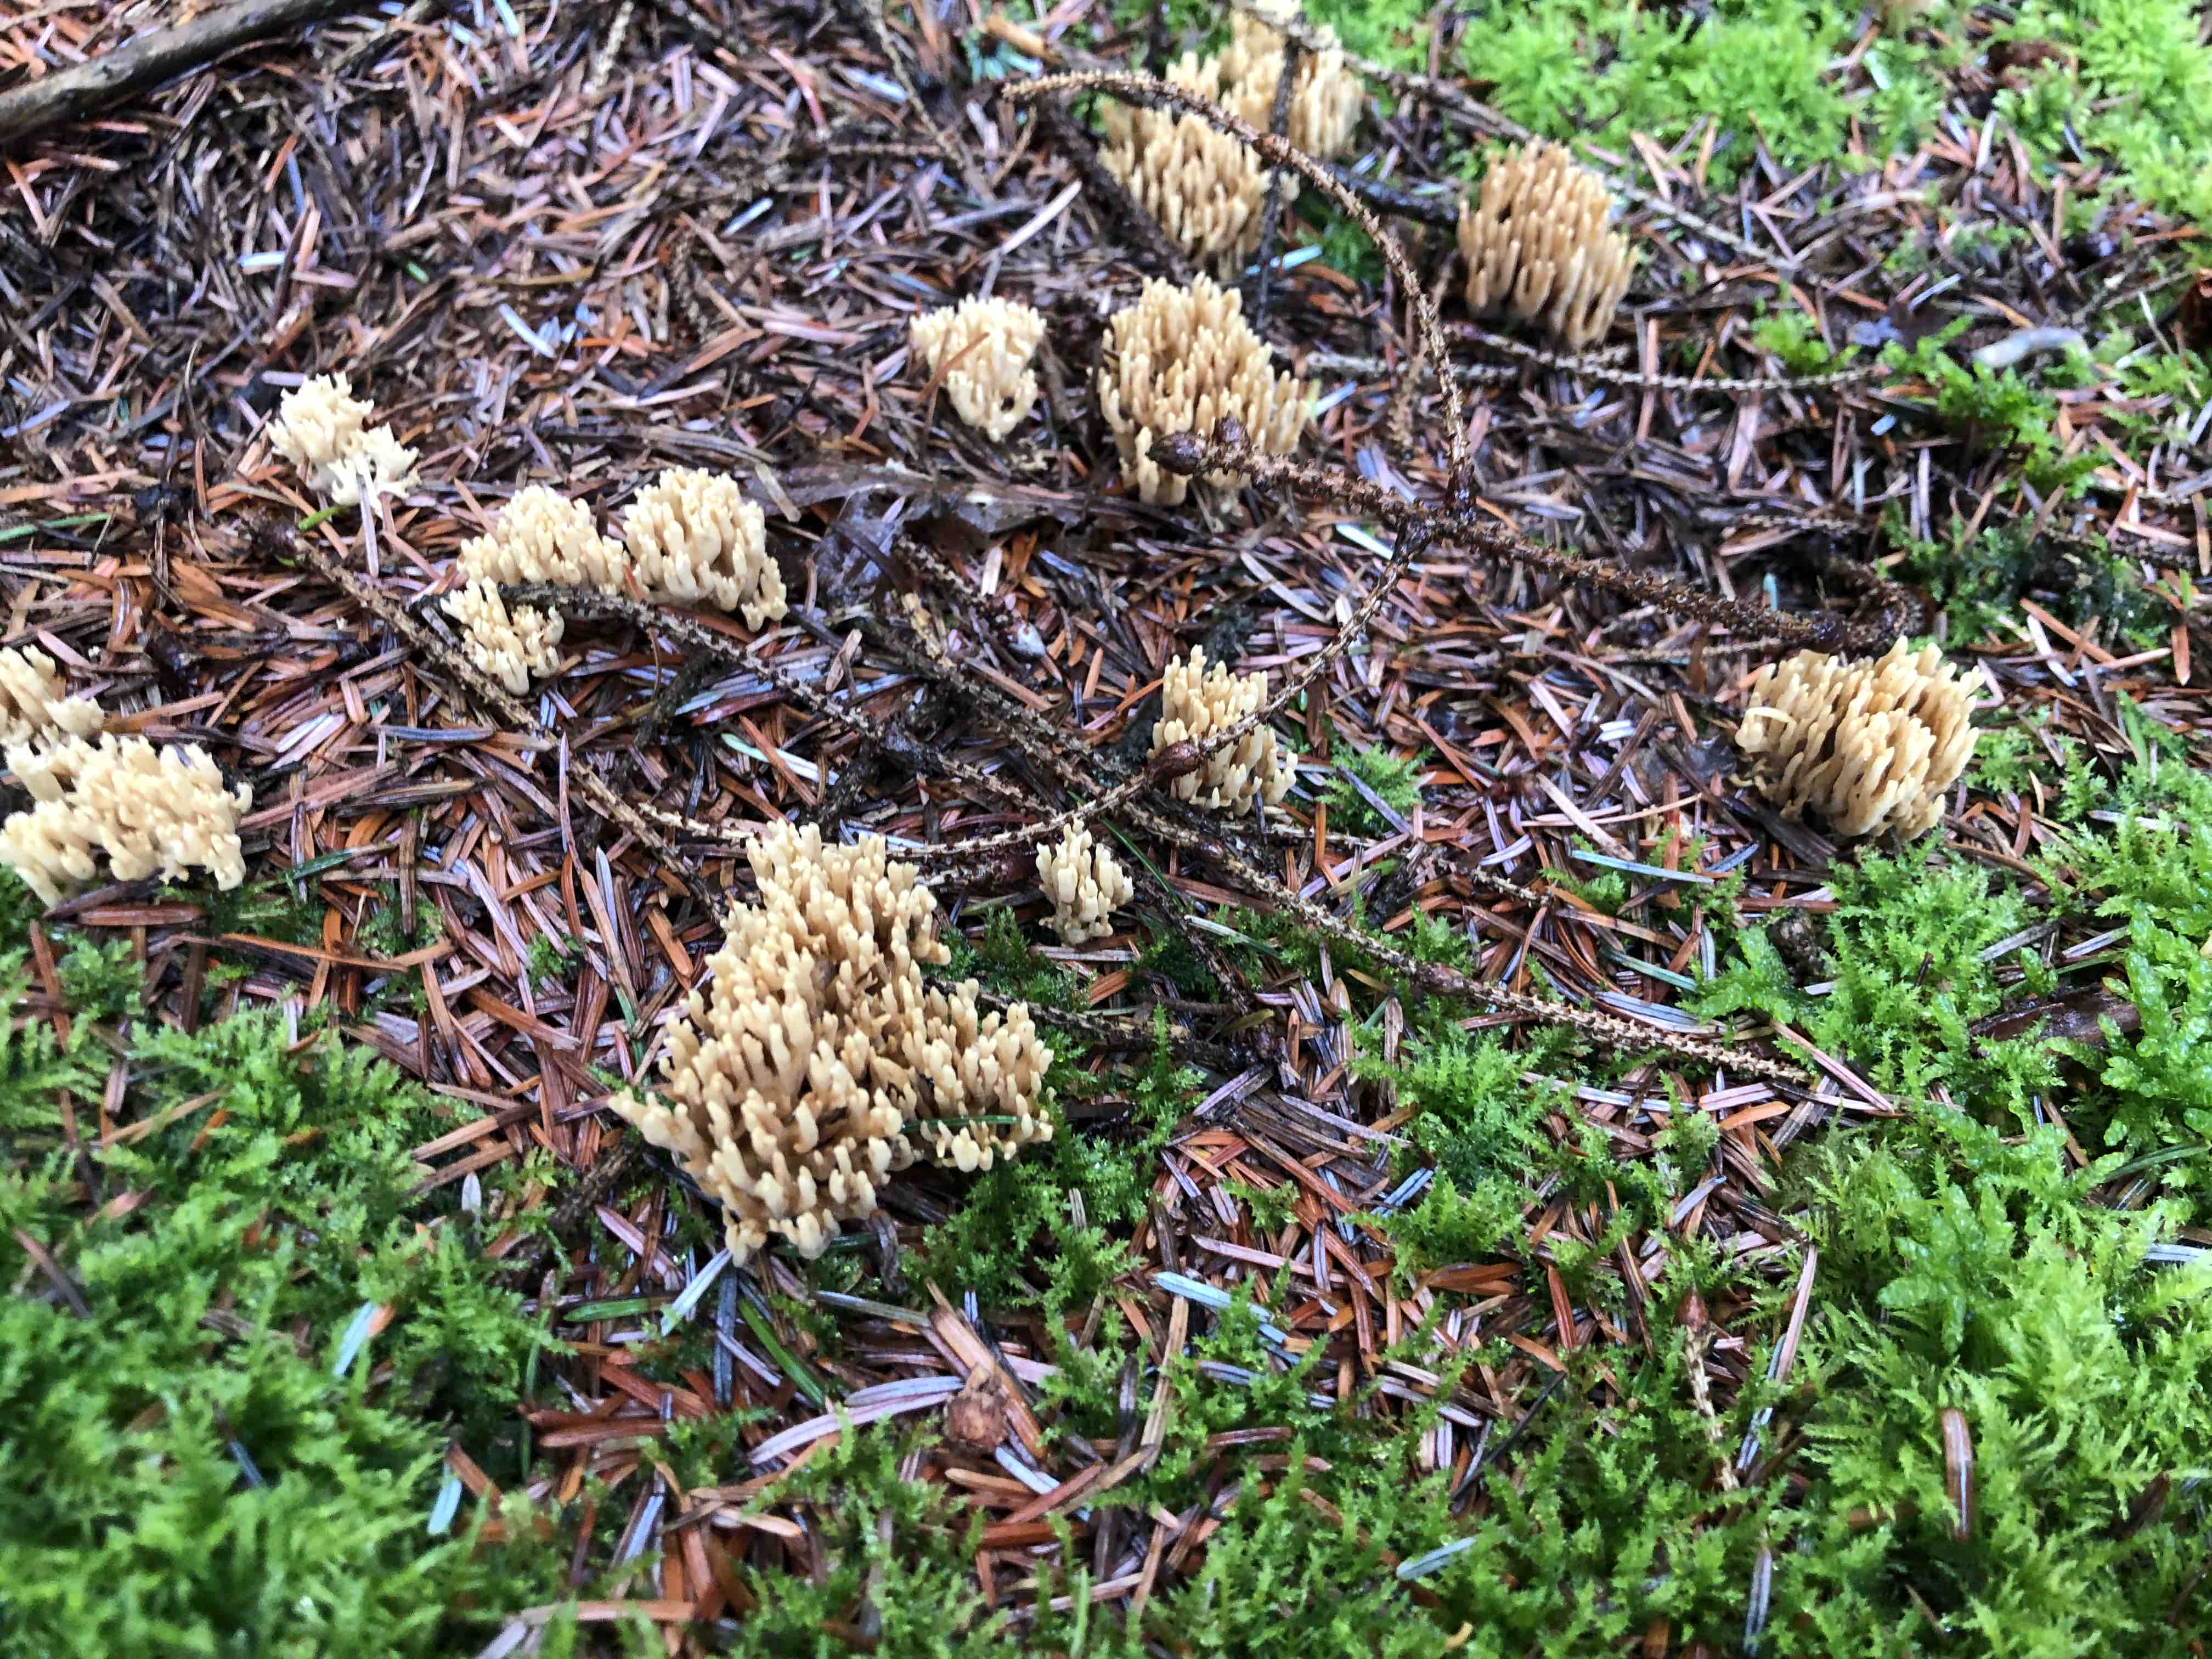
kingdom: Fungi
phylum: Basidiomycota
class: Agaricomycetes
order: Gomphales
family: Gomphaceae
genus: Phaeoclavulina
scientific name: Phaeoclavulina
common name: koralsvamp
